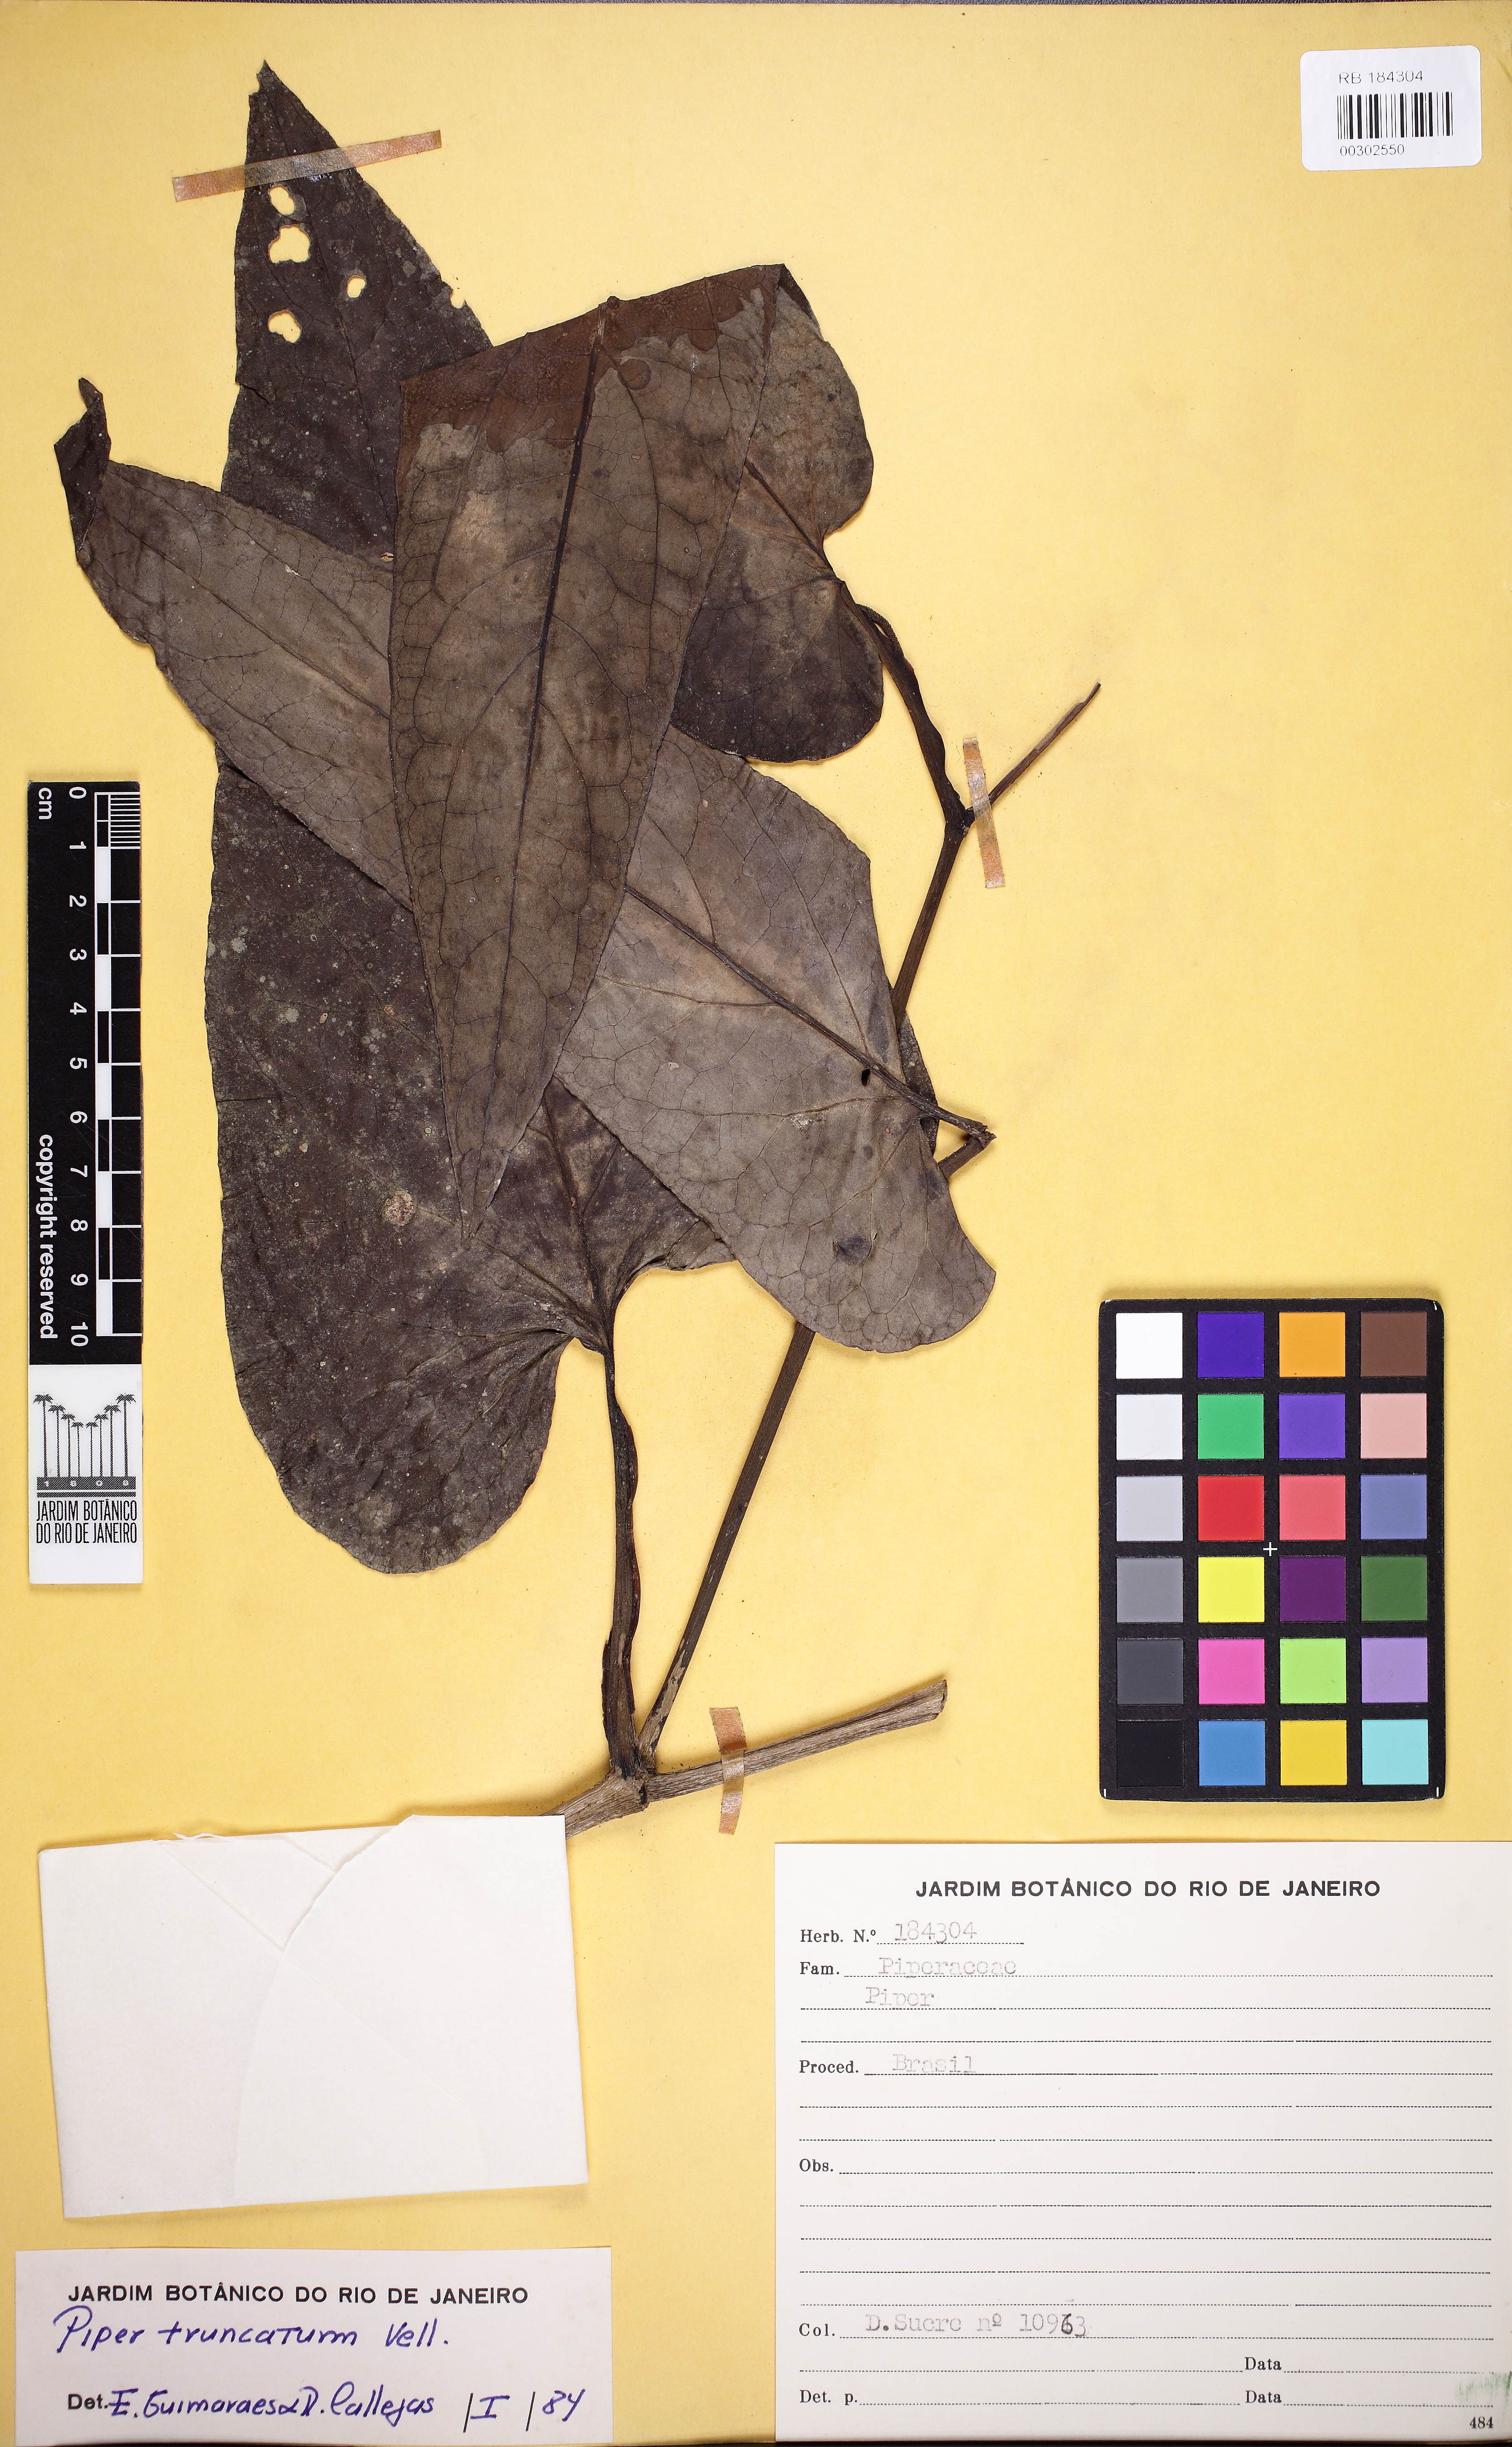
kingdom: Plantae
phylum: Tracheophyta
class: Magnoliopsida
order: Piperales
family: Piperaceae
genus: Piper
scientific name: Piper truncatum
